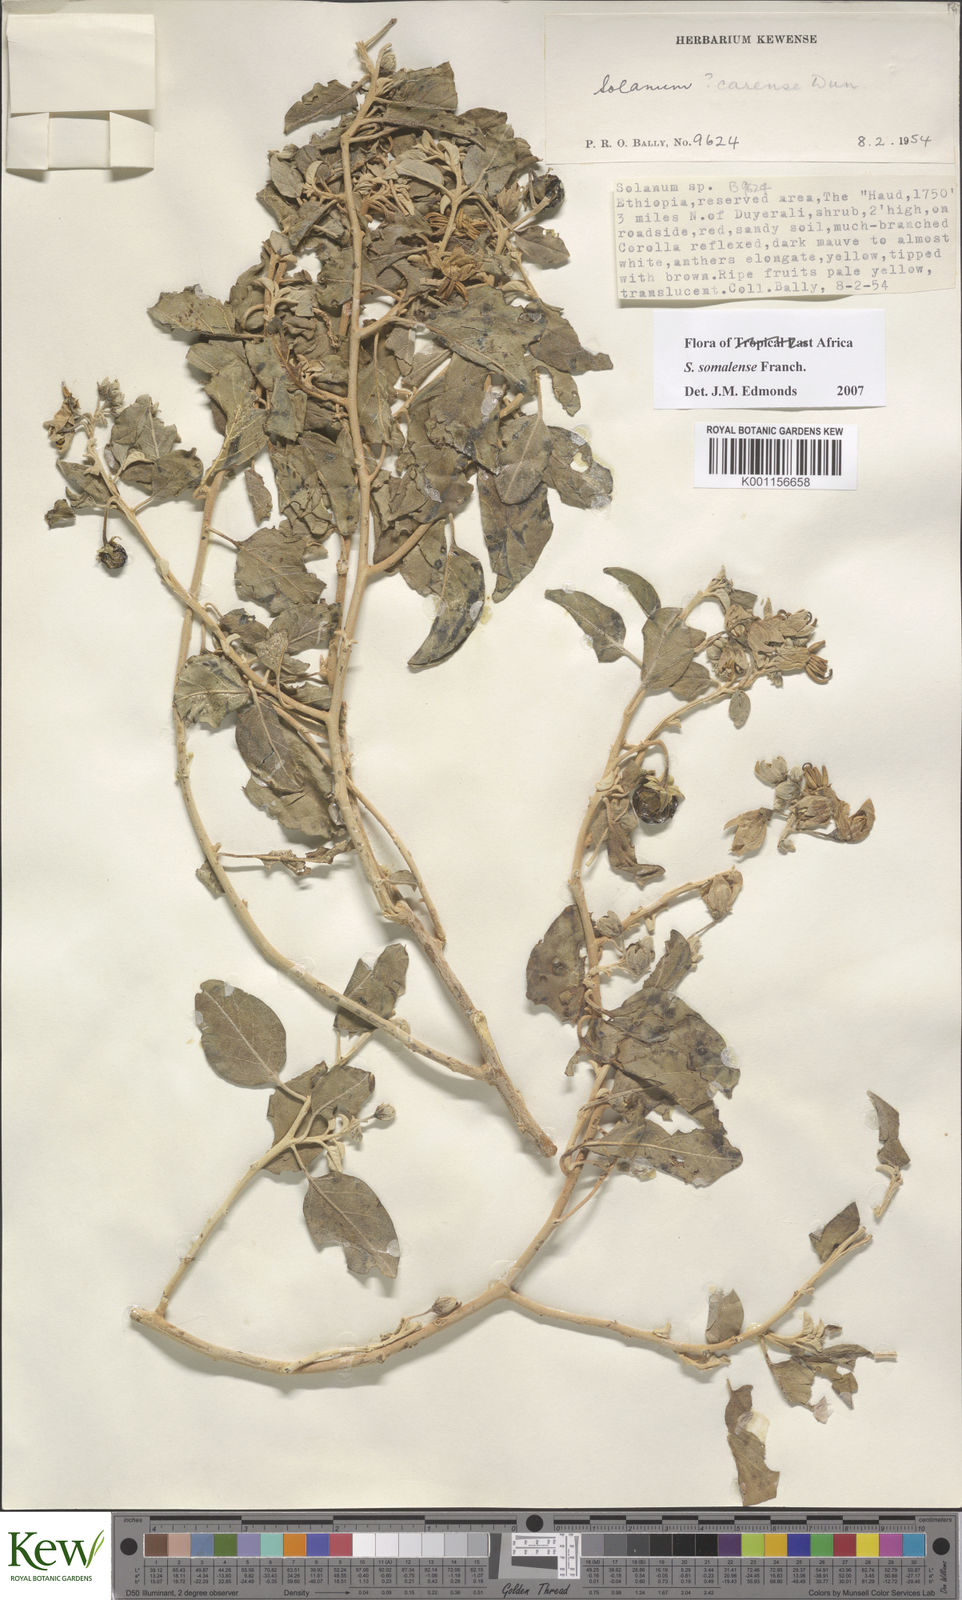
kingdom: Plantae
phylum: Tracheophyta
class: Magnoliopsida
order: Solanales
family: Solanaceae
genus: Solanum
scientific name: Solanum somalense
